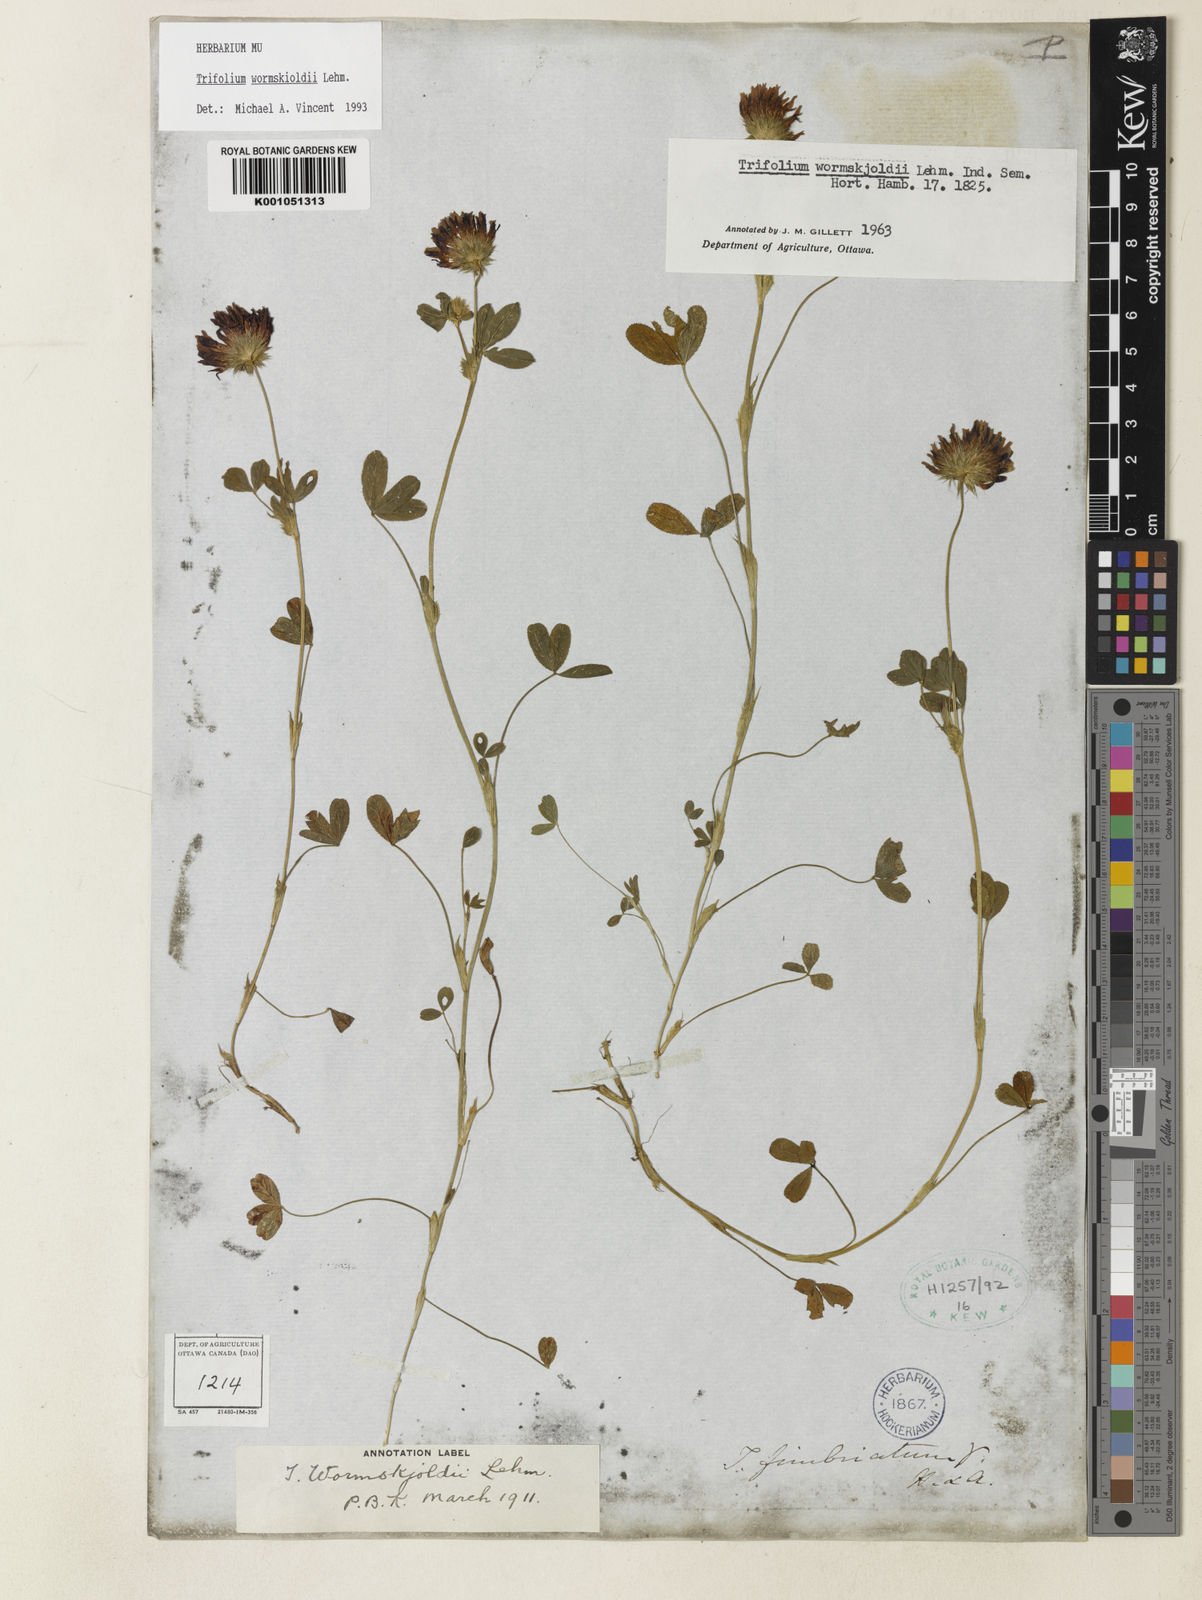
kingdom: Plantae
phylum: Tracheophyta
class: Magnoliopsida
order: Fabales
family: Fabaceae
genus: Trifolium
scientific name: Trifolium willdenovii
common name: Tomcat clover
